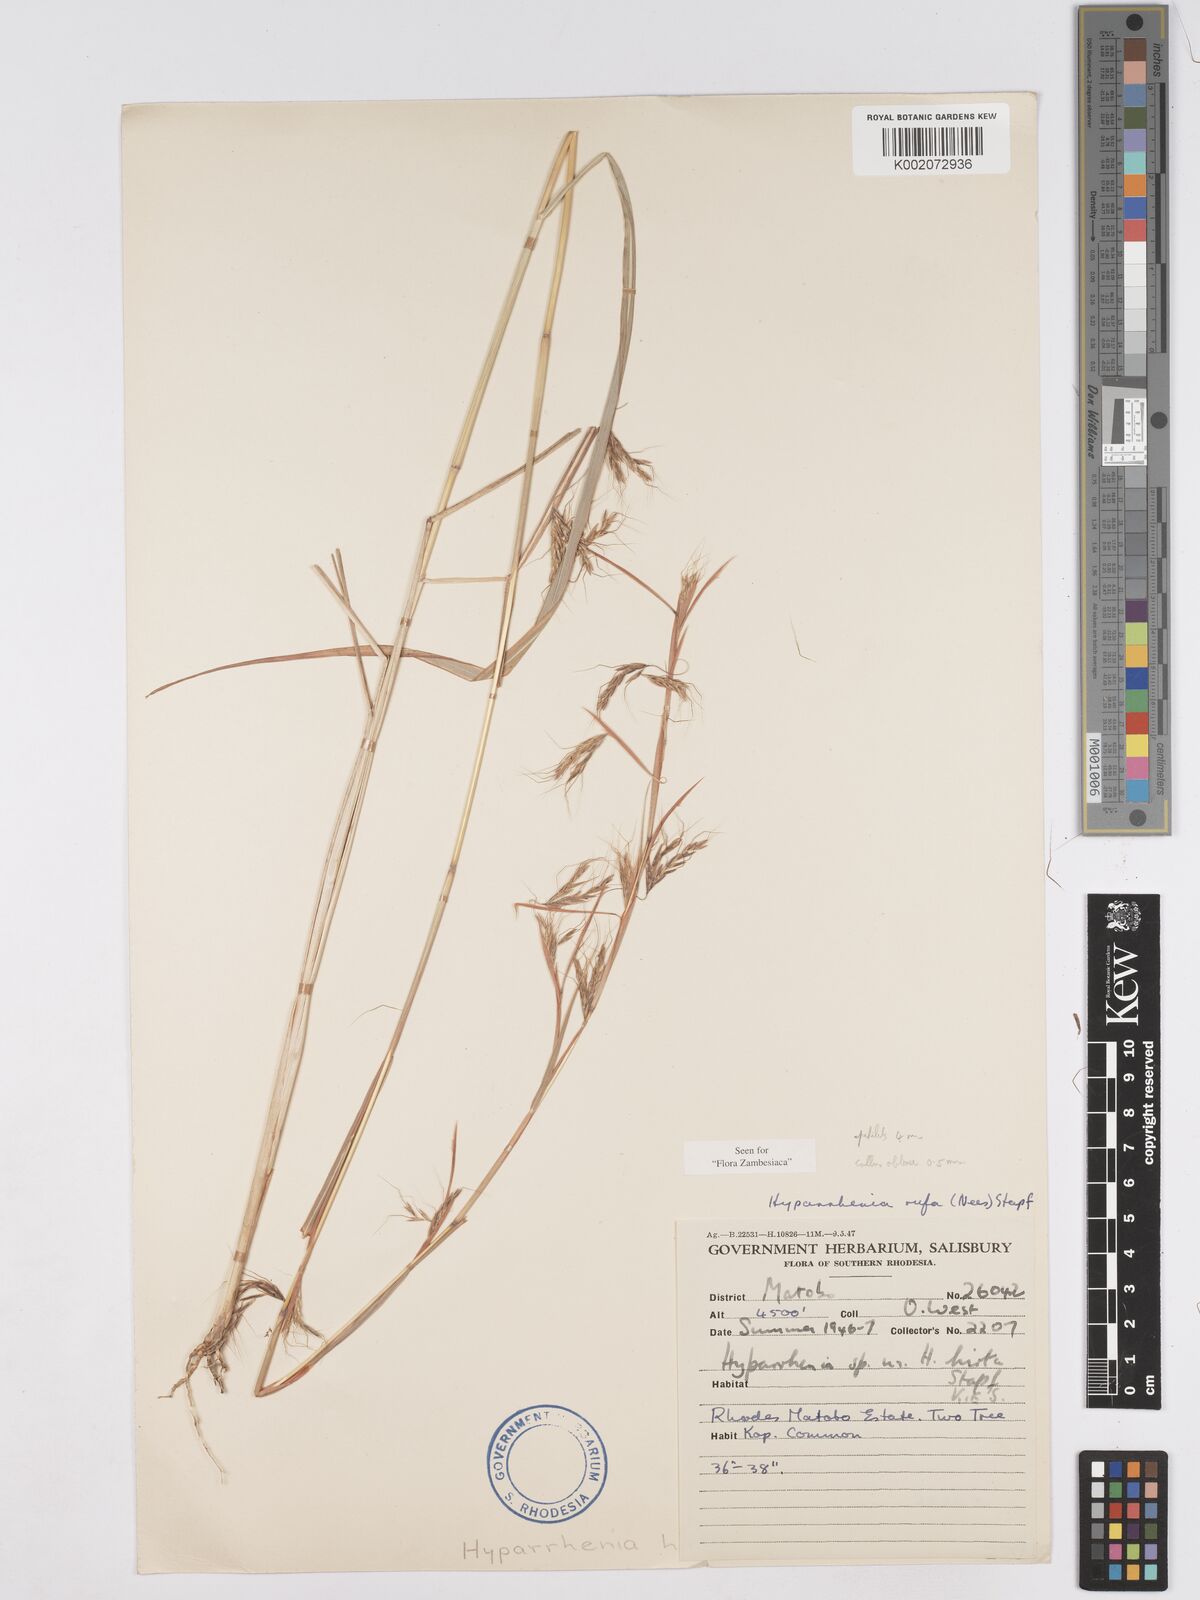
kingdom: Plantae
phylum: Tracheophyta
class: Liliopsida
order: Poales
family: Poaceae
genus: Hyparrhenia
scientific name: Hyparrhenia rufa
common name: Jaraguagrass
